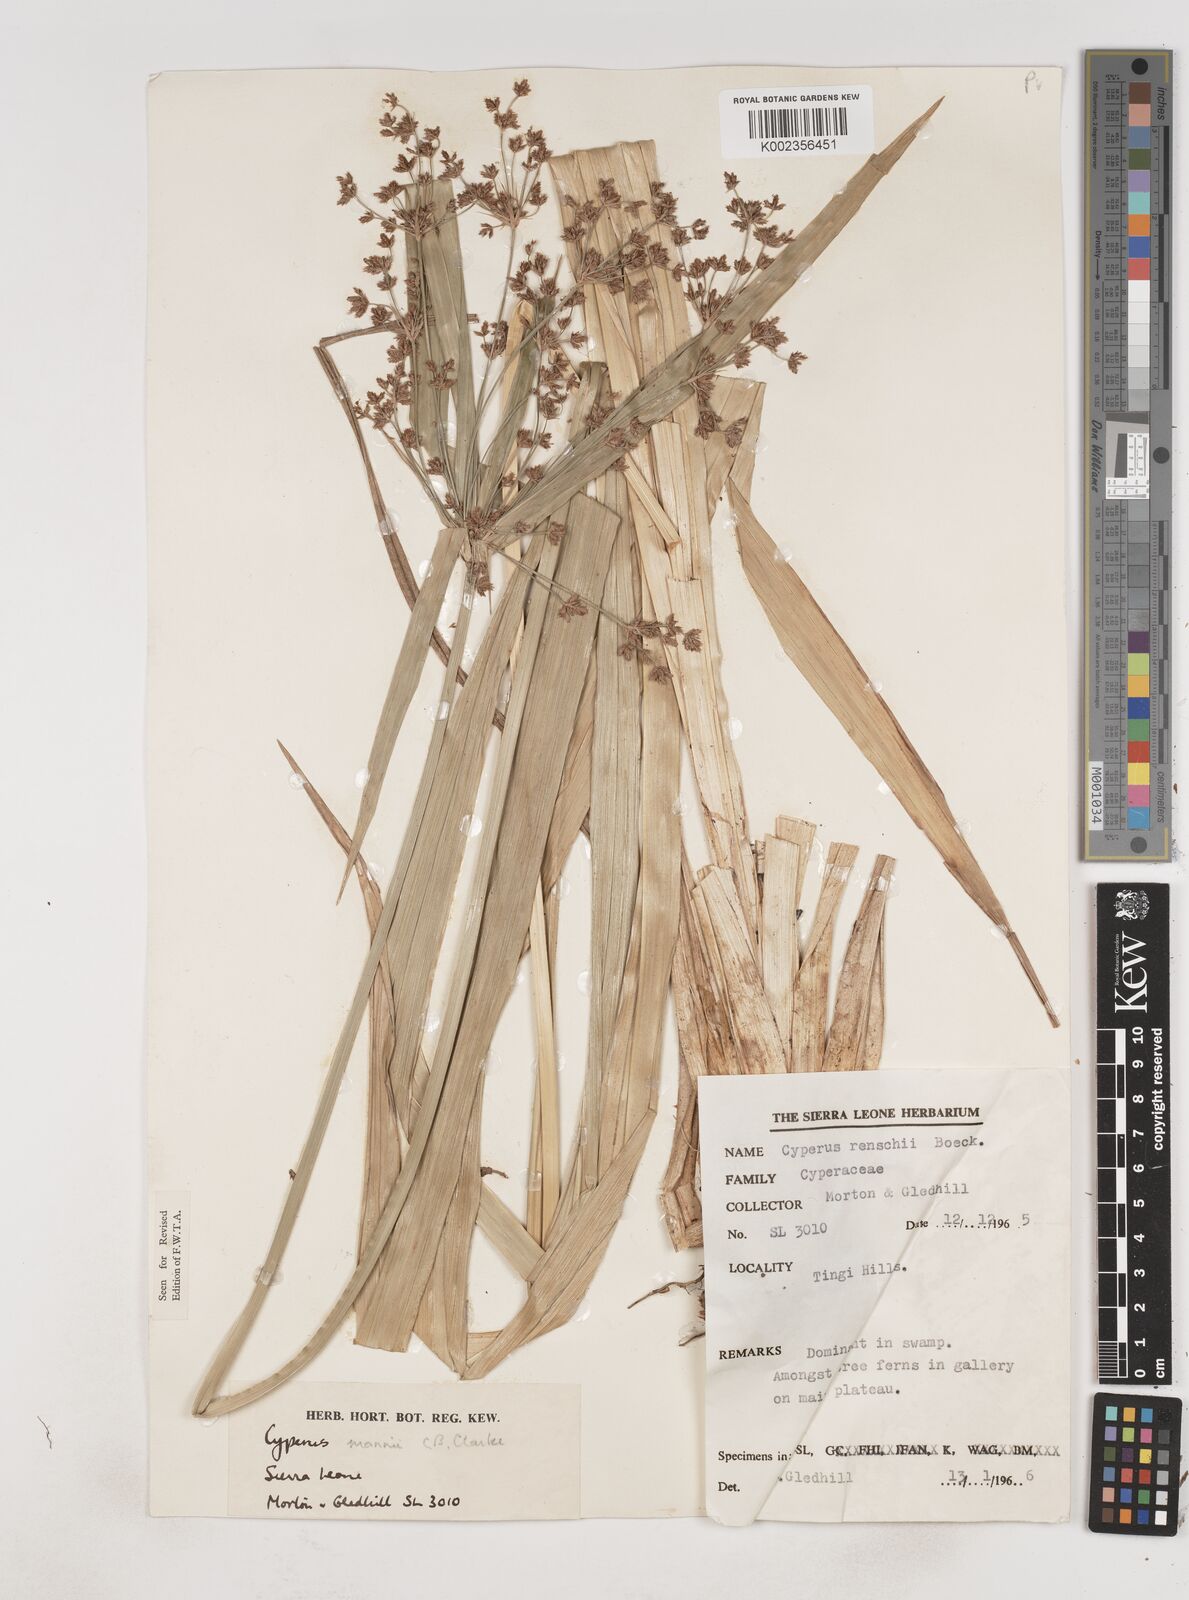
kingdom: Plantae
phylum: Tracheophyta
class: Liliopsida
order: Poales
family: Cyperaceae
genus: Cyperus
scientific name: Cyperus baronii
